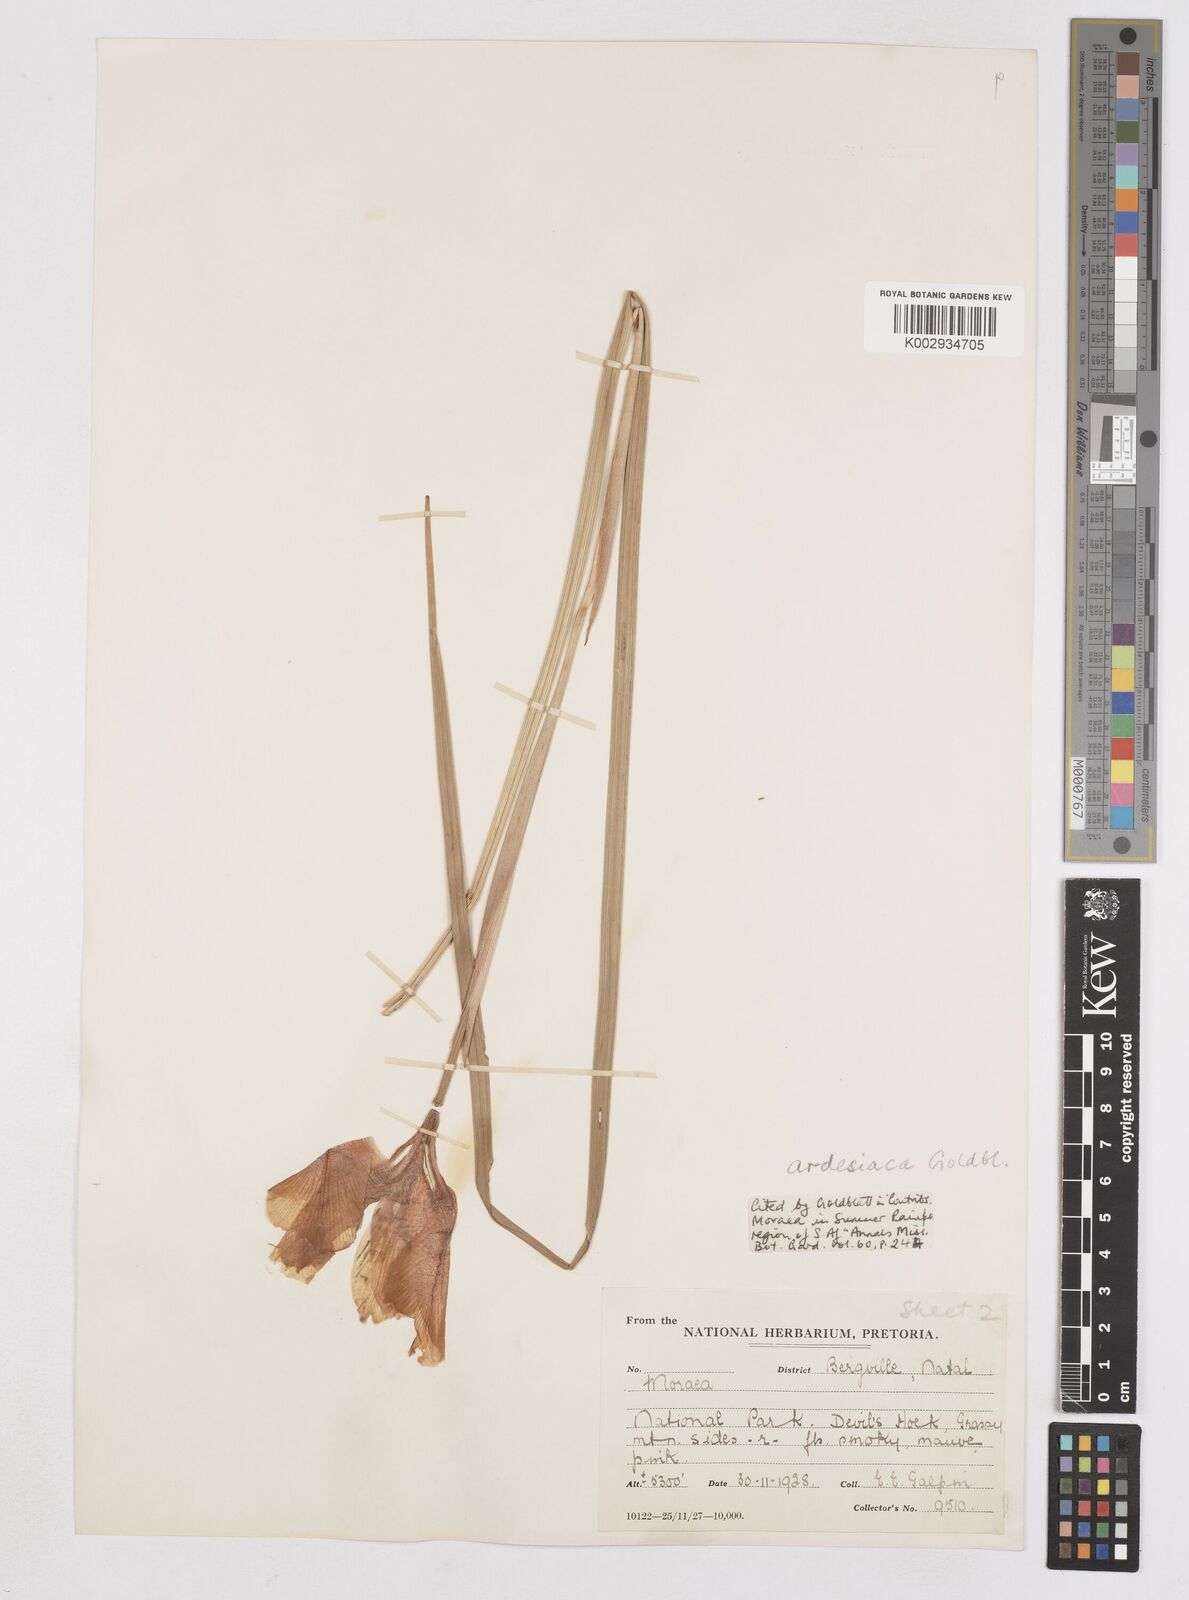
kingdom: Plantae
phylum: Tracheophyta
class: Liliopsida
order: Asparagales
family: Iridaceae
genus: Moraea
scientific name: Moraea ardesiaca
